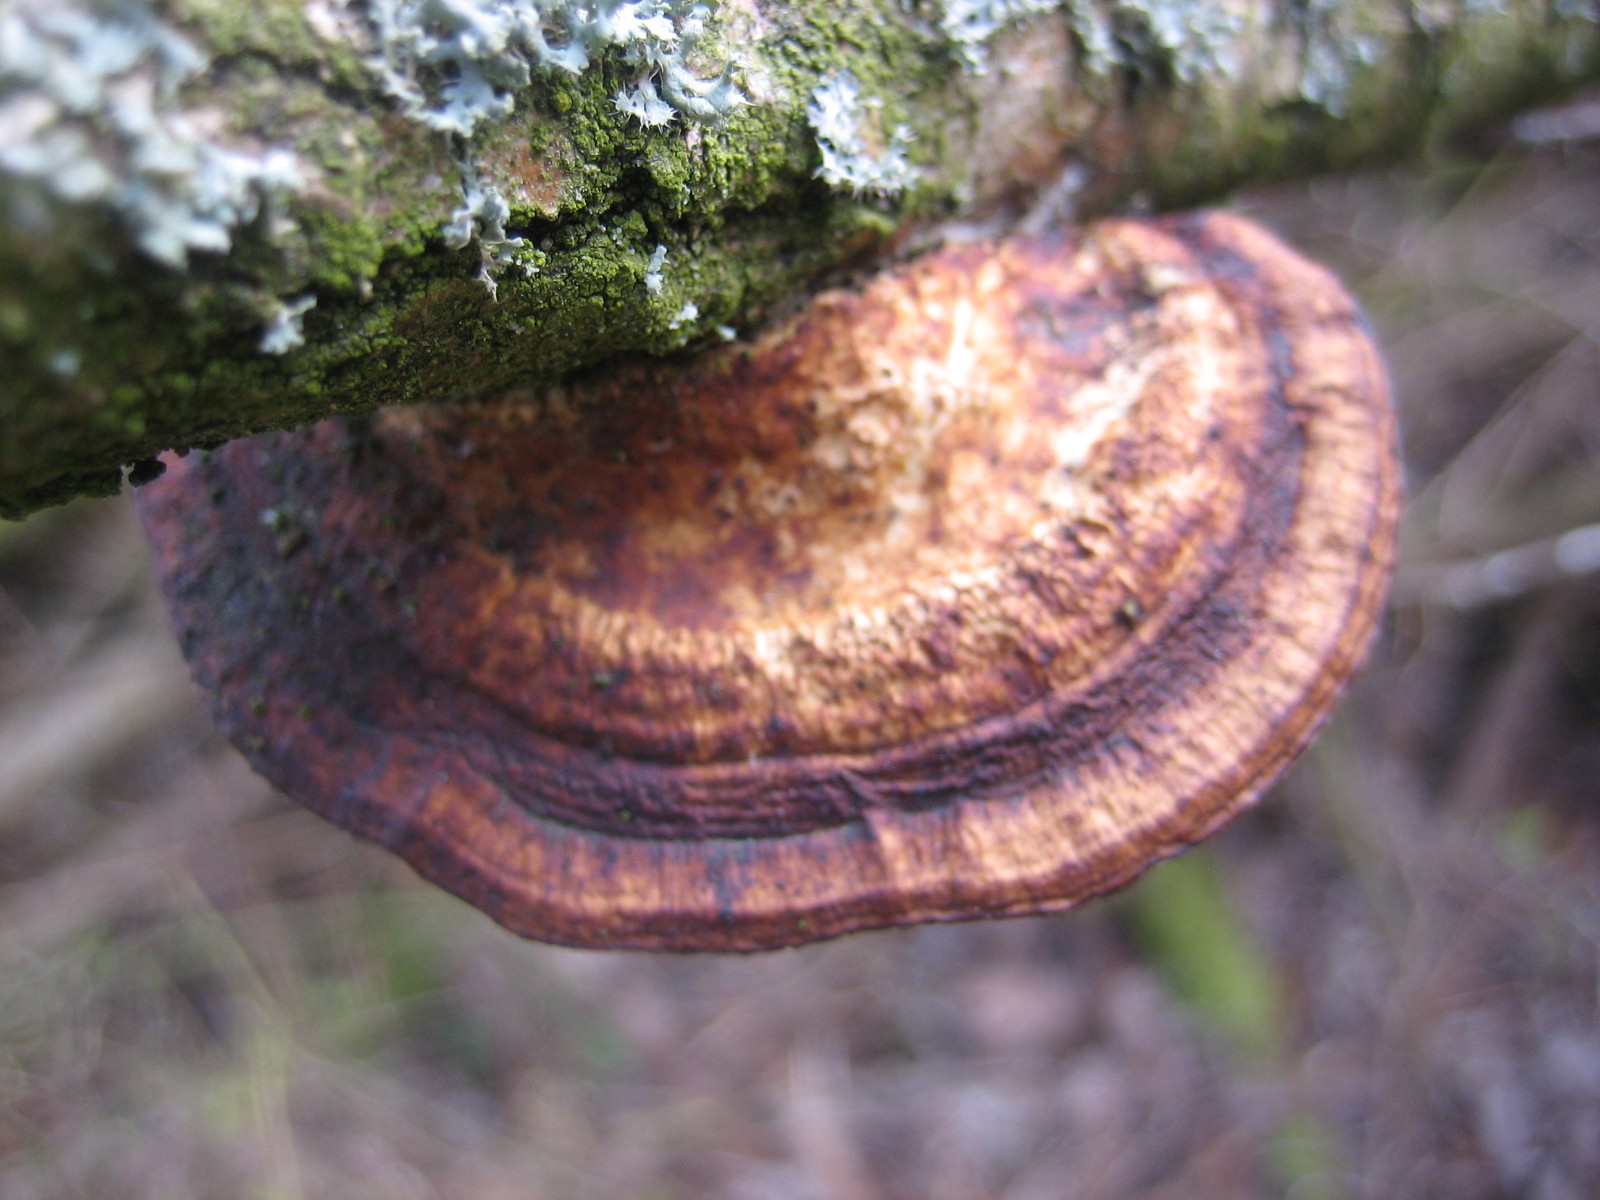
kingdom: Fungi
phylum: Basidiomycota
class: Agaricomycetes
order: Polyporales
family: Polyporaceae
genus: Daedaleopsis
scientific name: Daedaleopsis confragosa
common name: rødmende læderporesvamp
